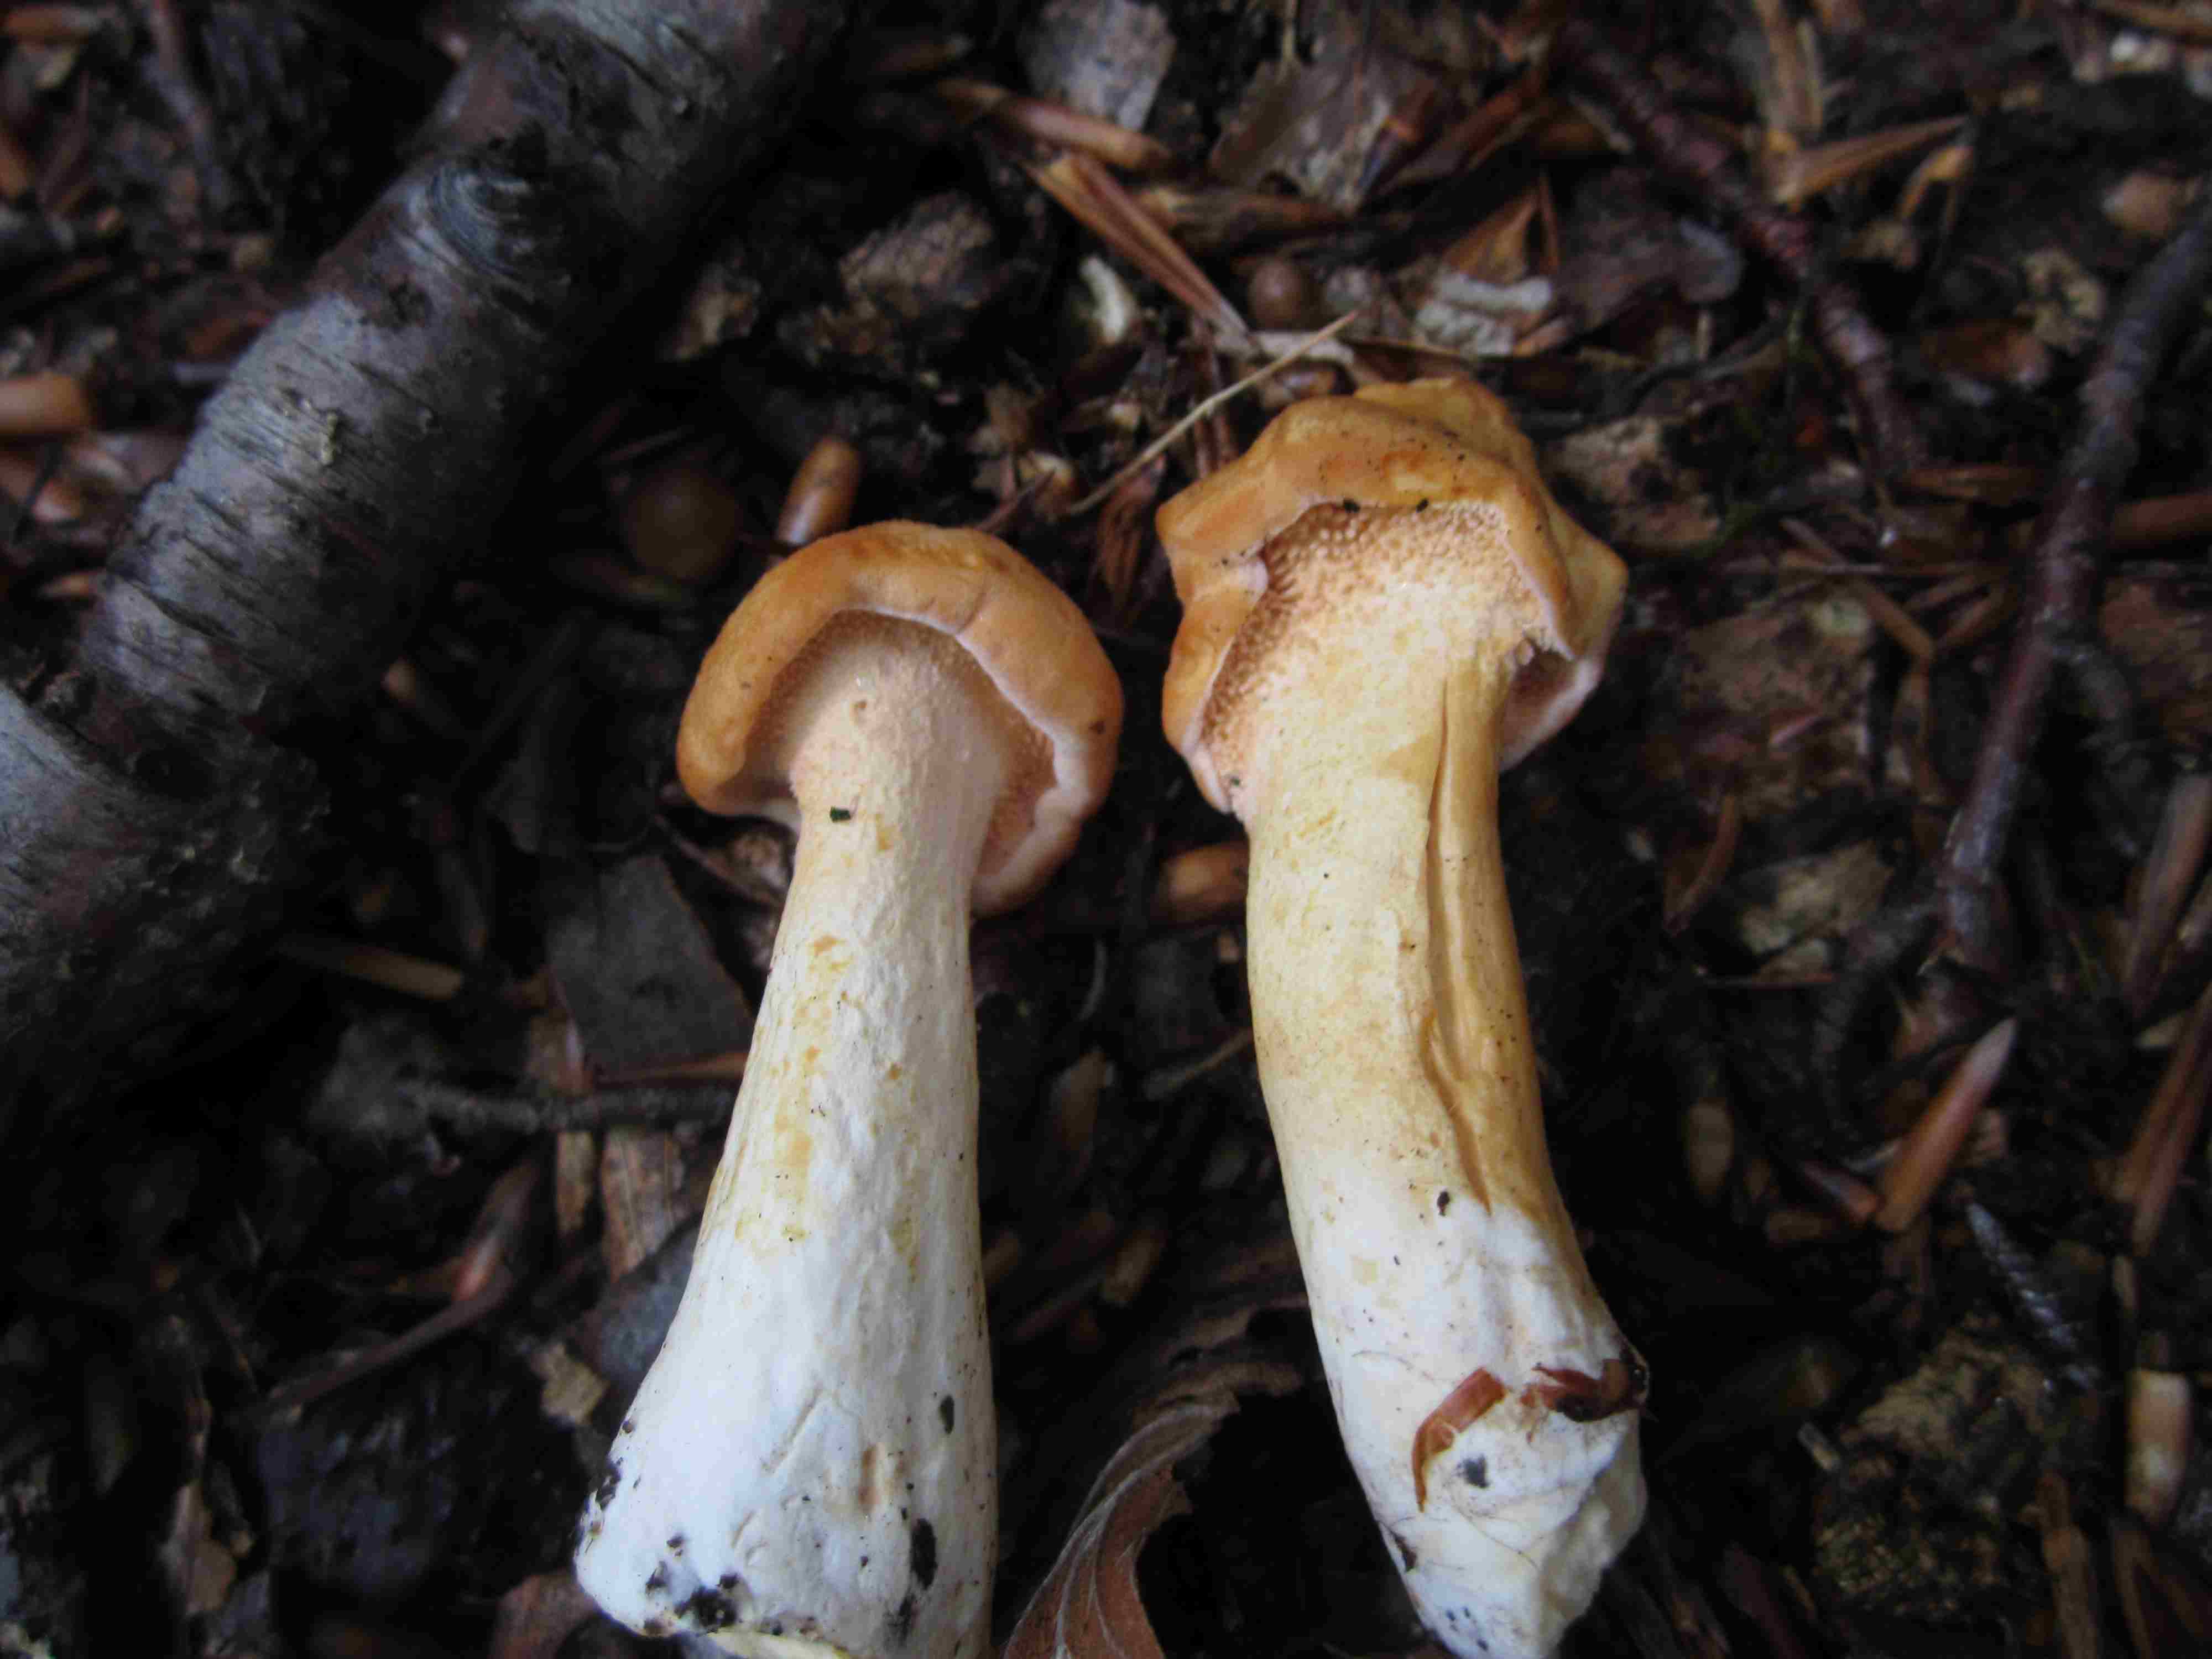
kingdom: Fungi
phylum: Basidiomycota
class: Agaricomycetes
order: Cantharellales
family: Hydnaceae
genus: Hydnum
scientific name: Hydnum rufescens
